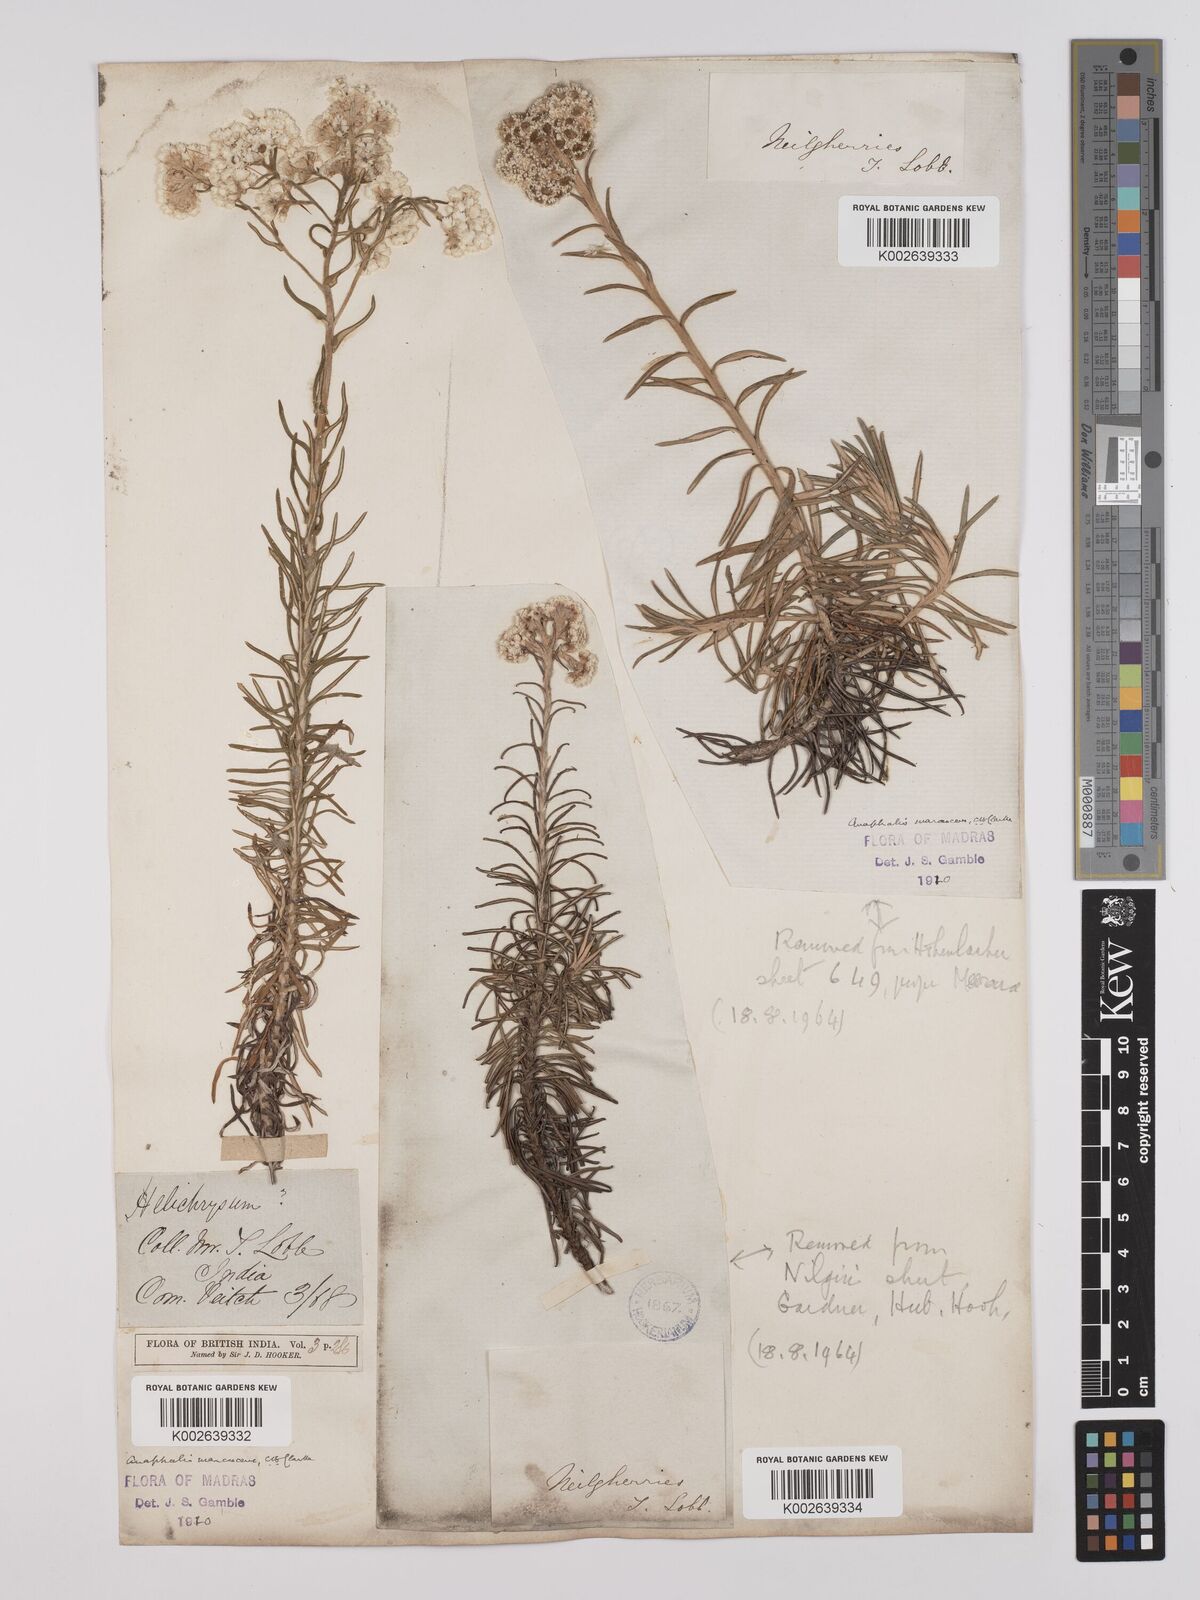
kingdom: Plantae
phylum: Tracheophyta
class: Magnoliopsida
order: Asterales
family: Asteraceae
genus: Anaphalis
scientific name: Anaphalis marcescens
